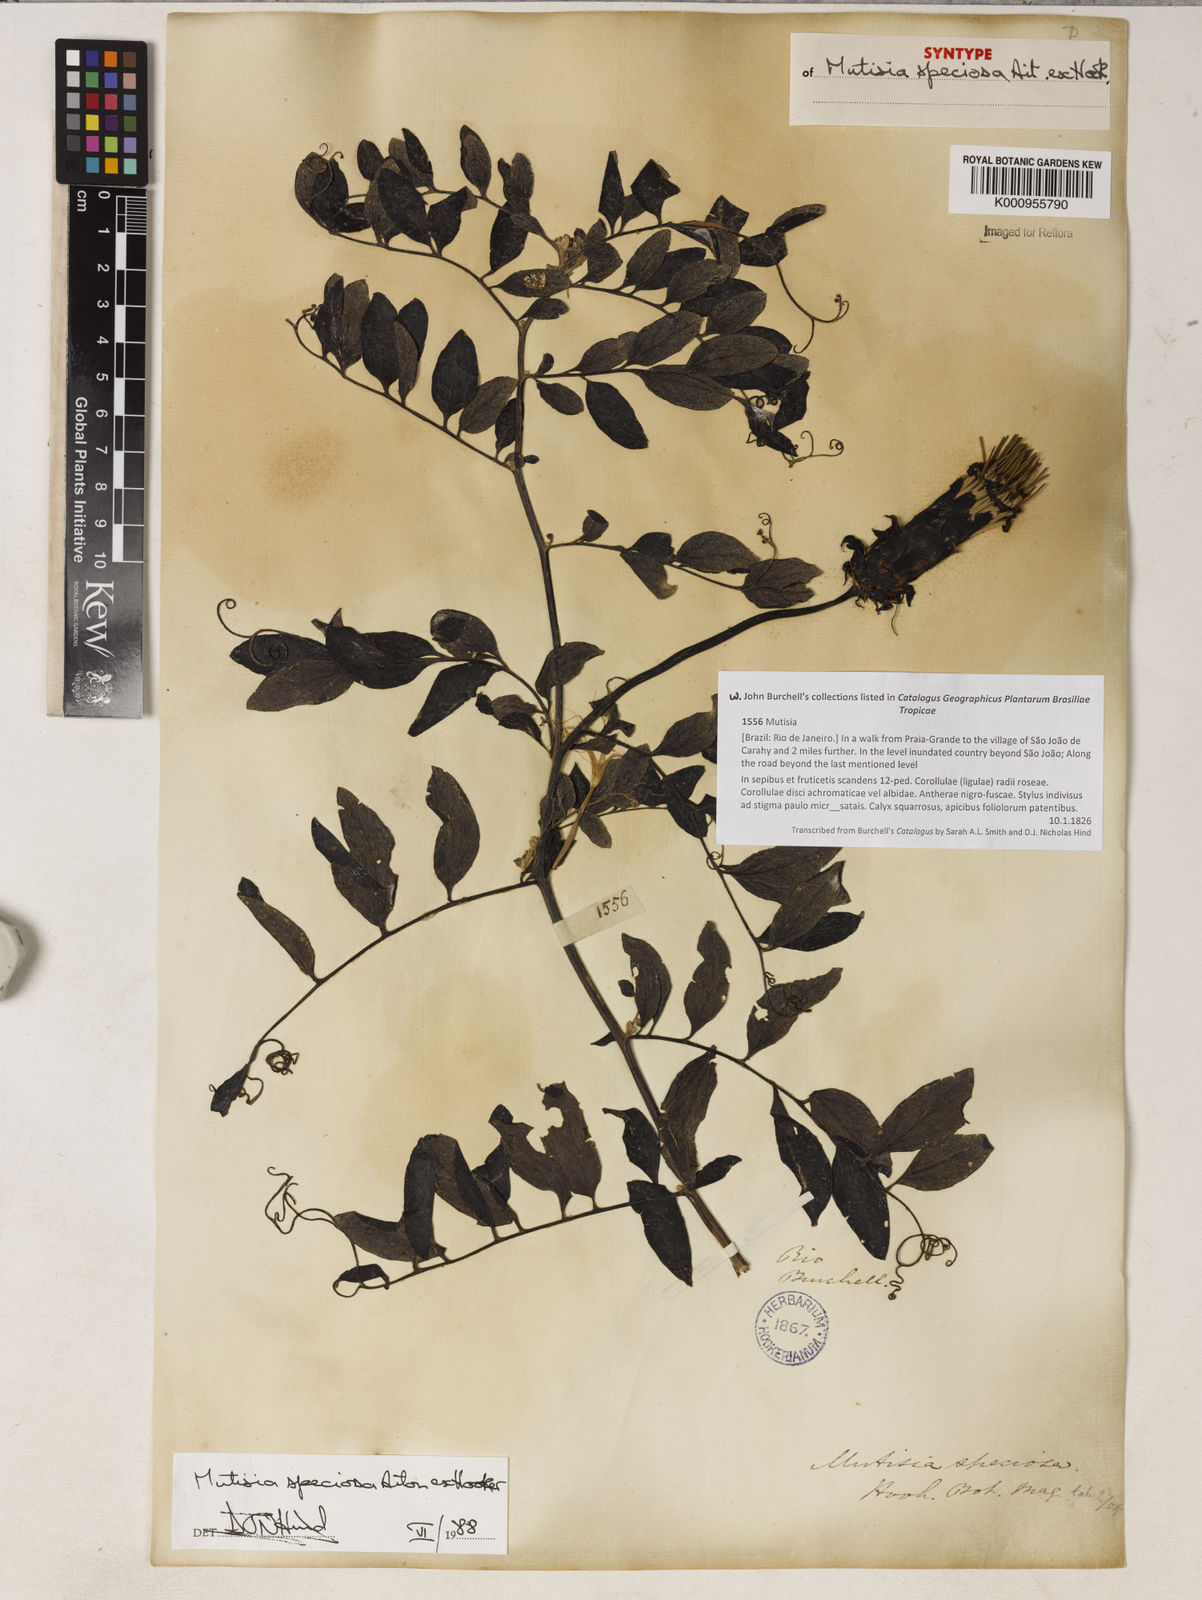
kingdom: Plantae
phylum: Tracheophyta
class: Magnoliopsida
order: Asterales
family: Asteraceae
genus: Mutisia
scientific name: Mutisia speciosa
